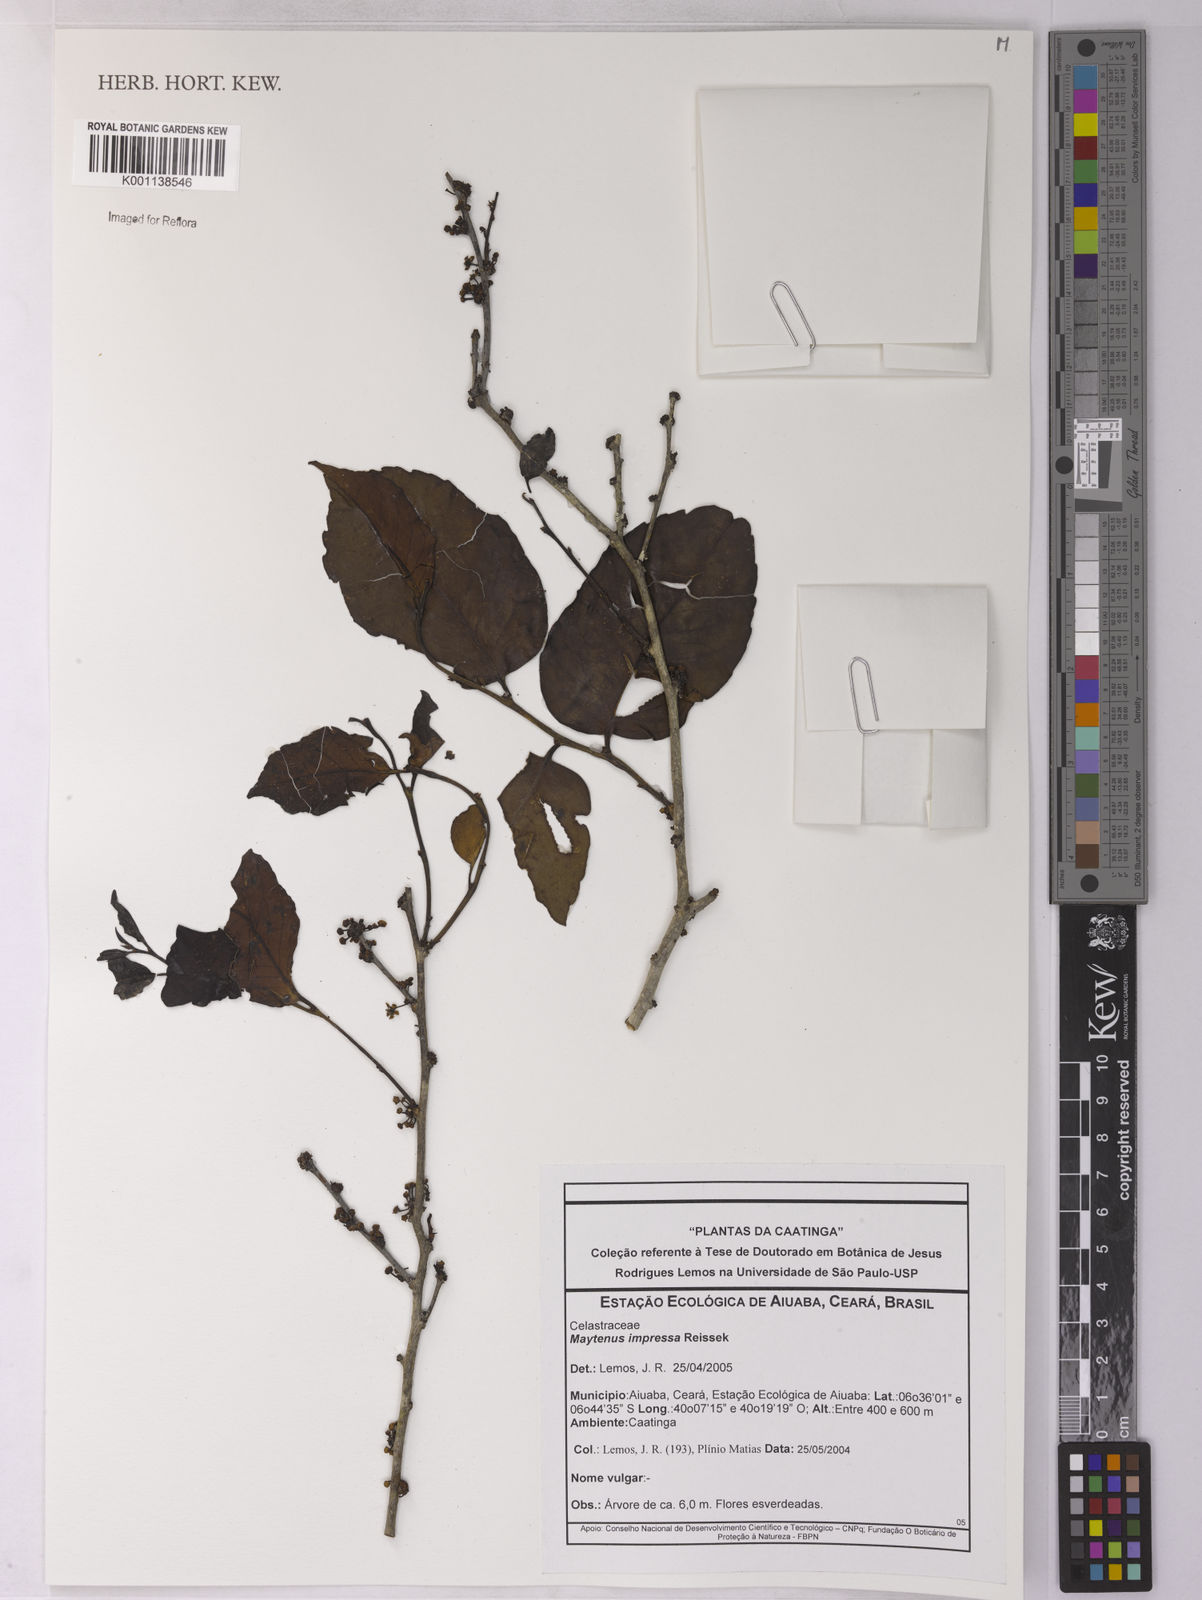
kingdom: Plantae
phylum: Tracheophyta
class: Magnoliopsida
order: Celastrales
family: Celastraceae
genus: Monteverdia
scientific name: Monteverdia obtusifolia
